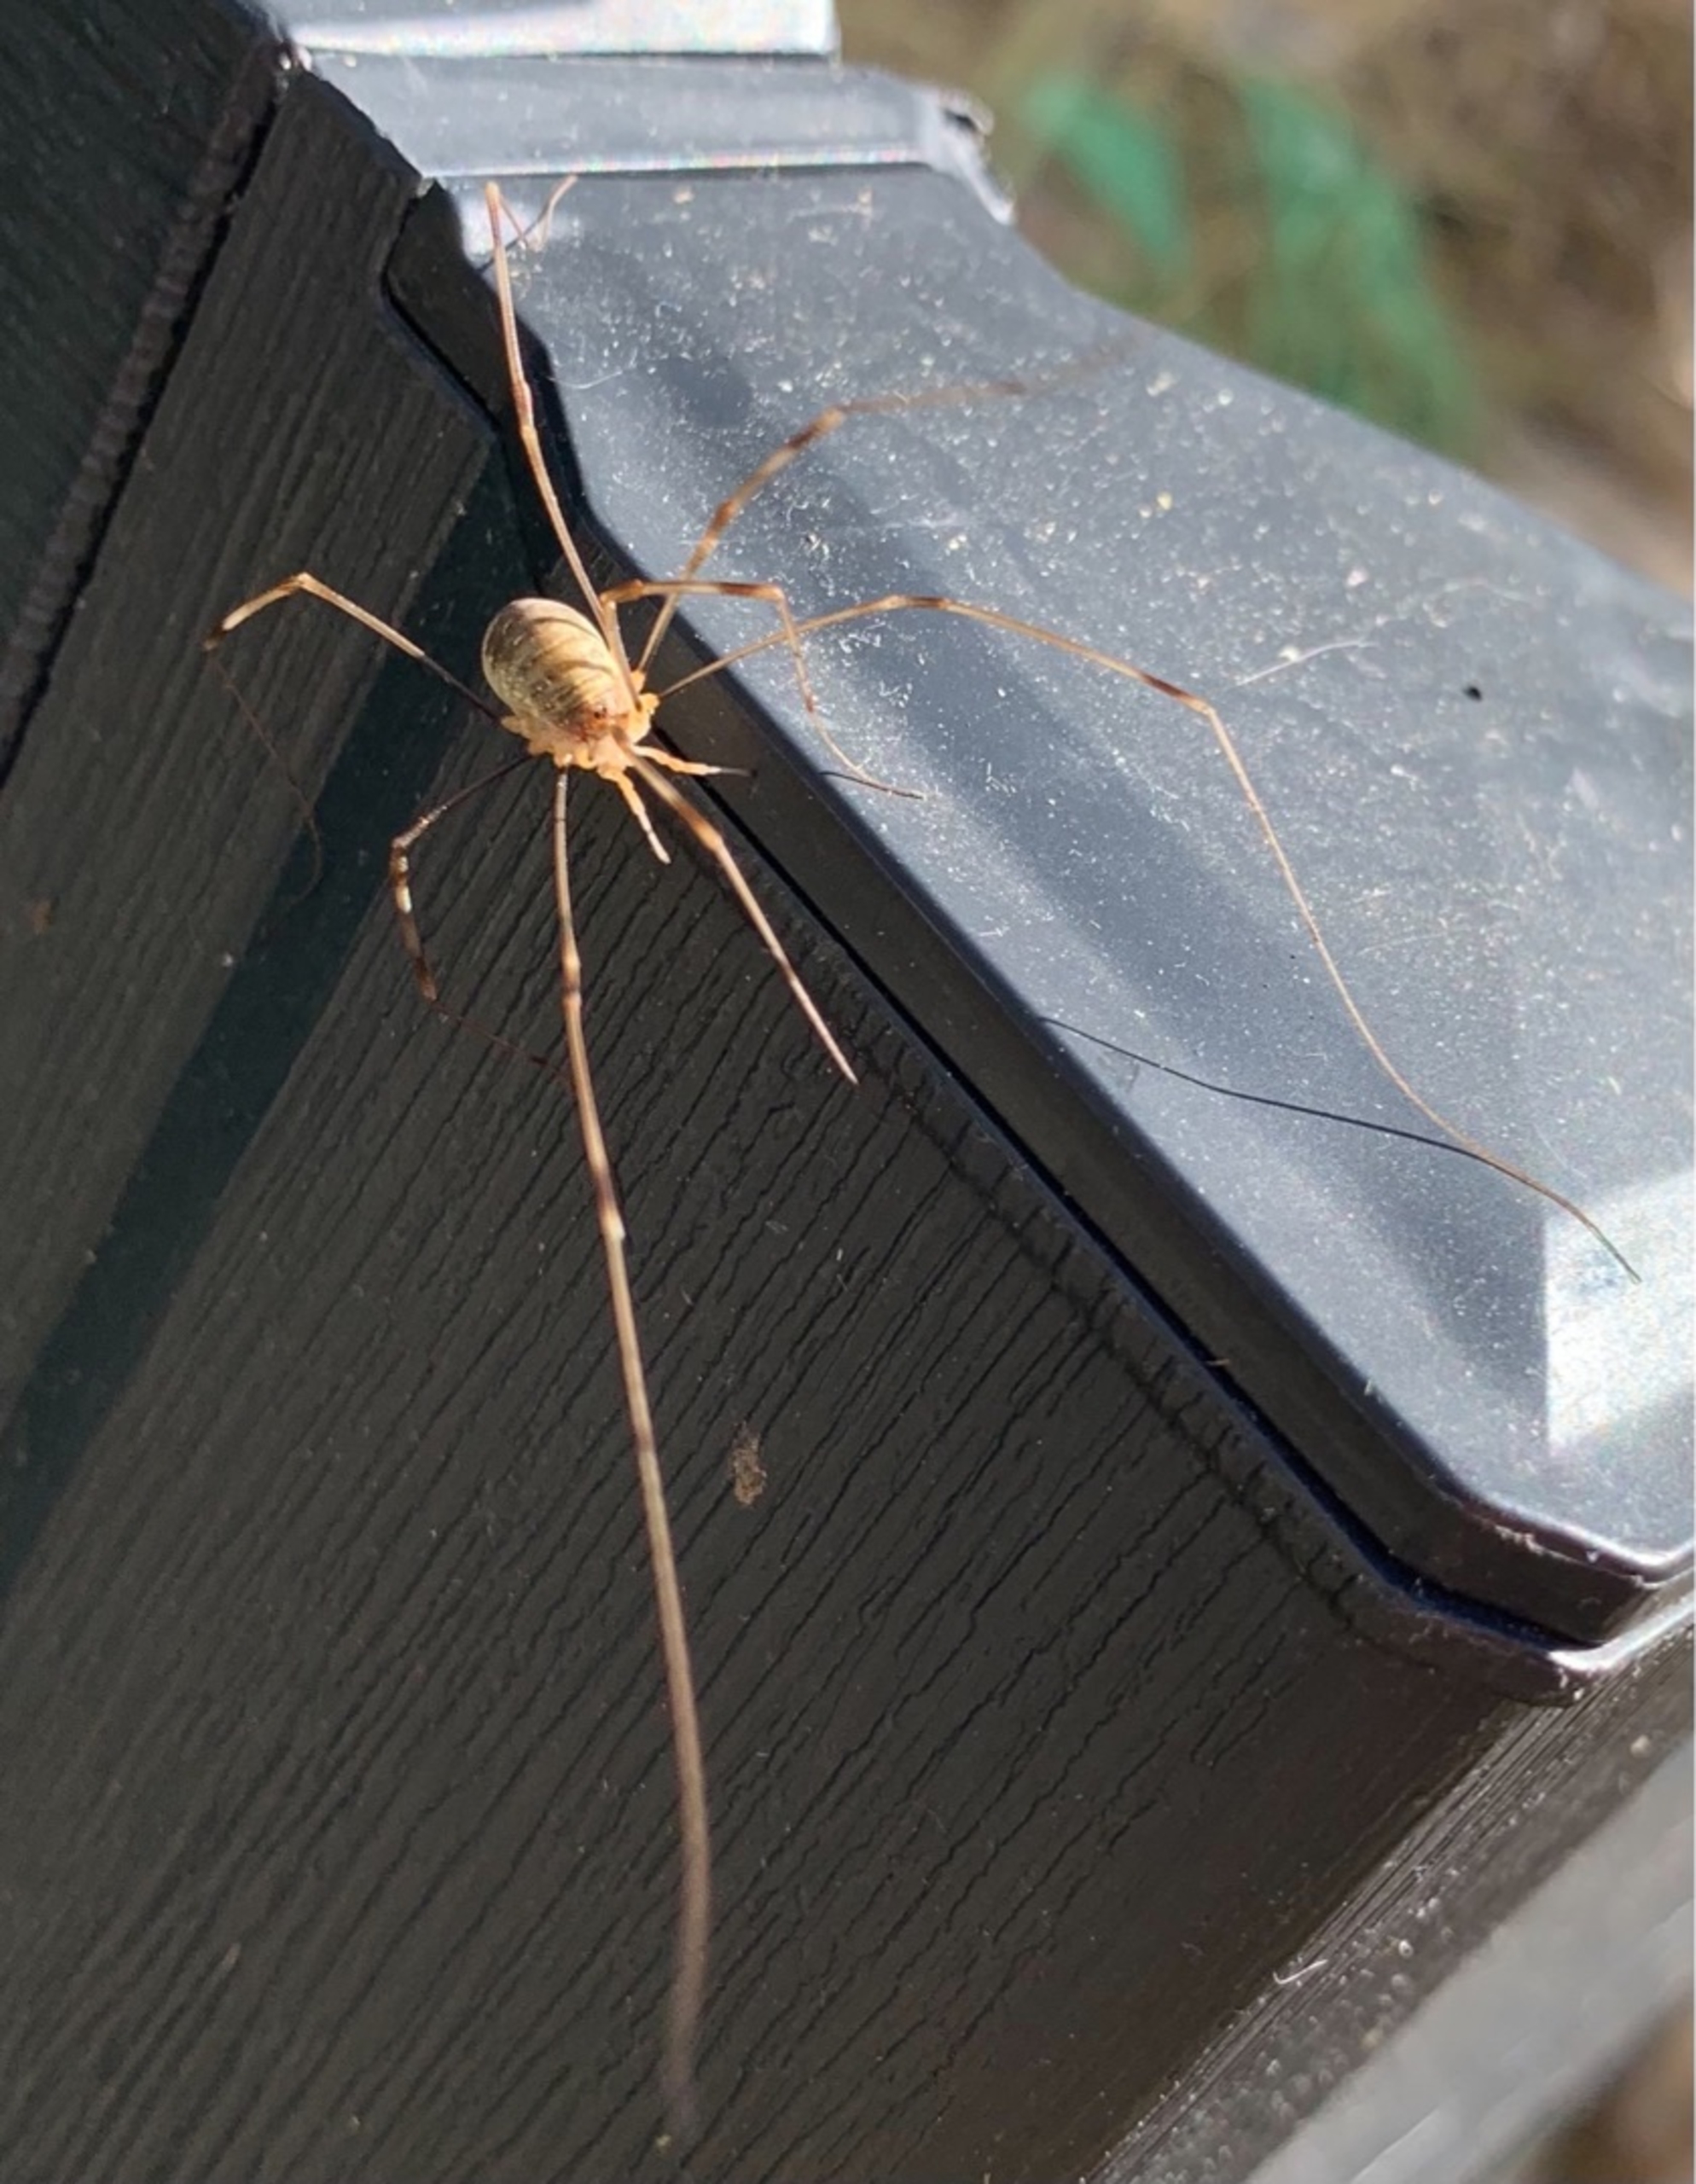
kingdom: Animalia
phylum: Arthropoda
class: Arachnida
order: Opiliones
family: Phalangiidae
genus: Opilio
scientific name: Opilio canestrinii
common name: Orange vægmejer
